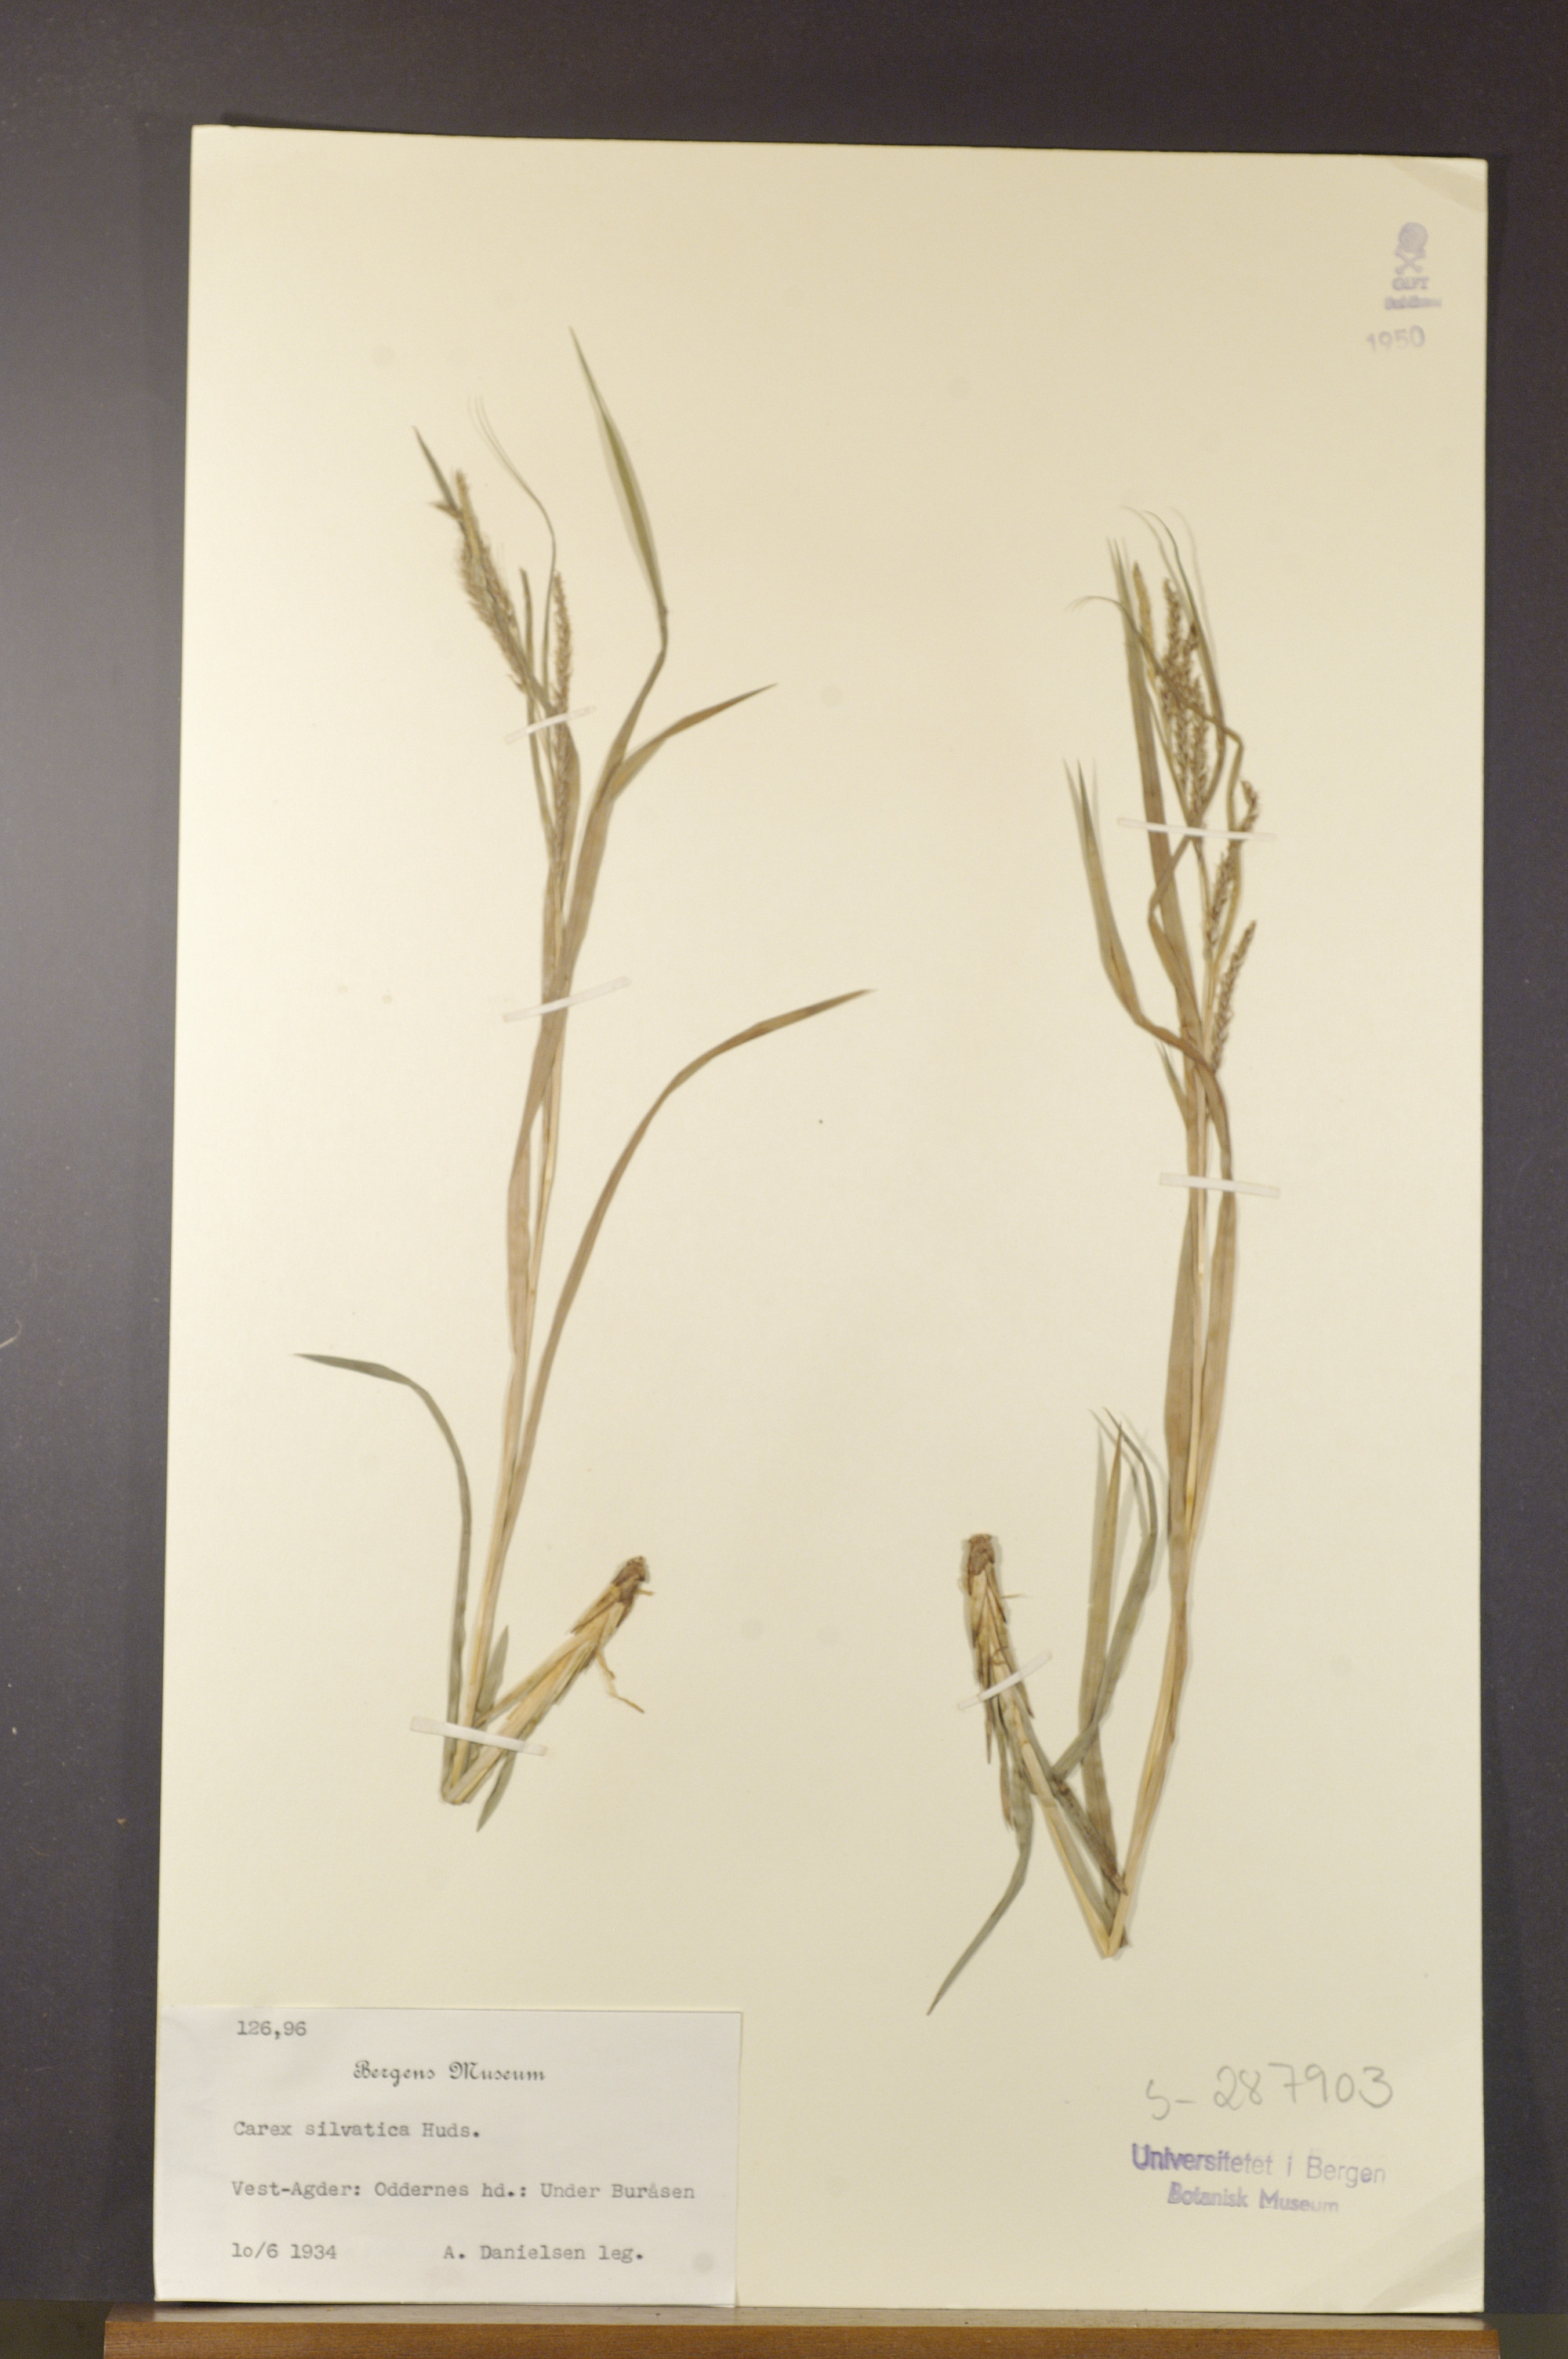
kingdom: Plantae
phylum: Tracheophyta
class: Liliopsida
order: Poales
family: Cyperaceae
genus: Carex
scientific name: Carex sylvatica
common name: Wood-sedge
